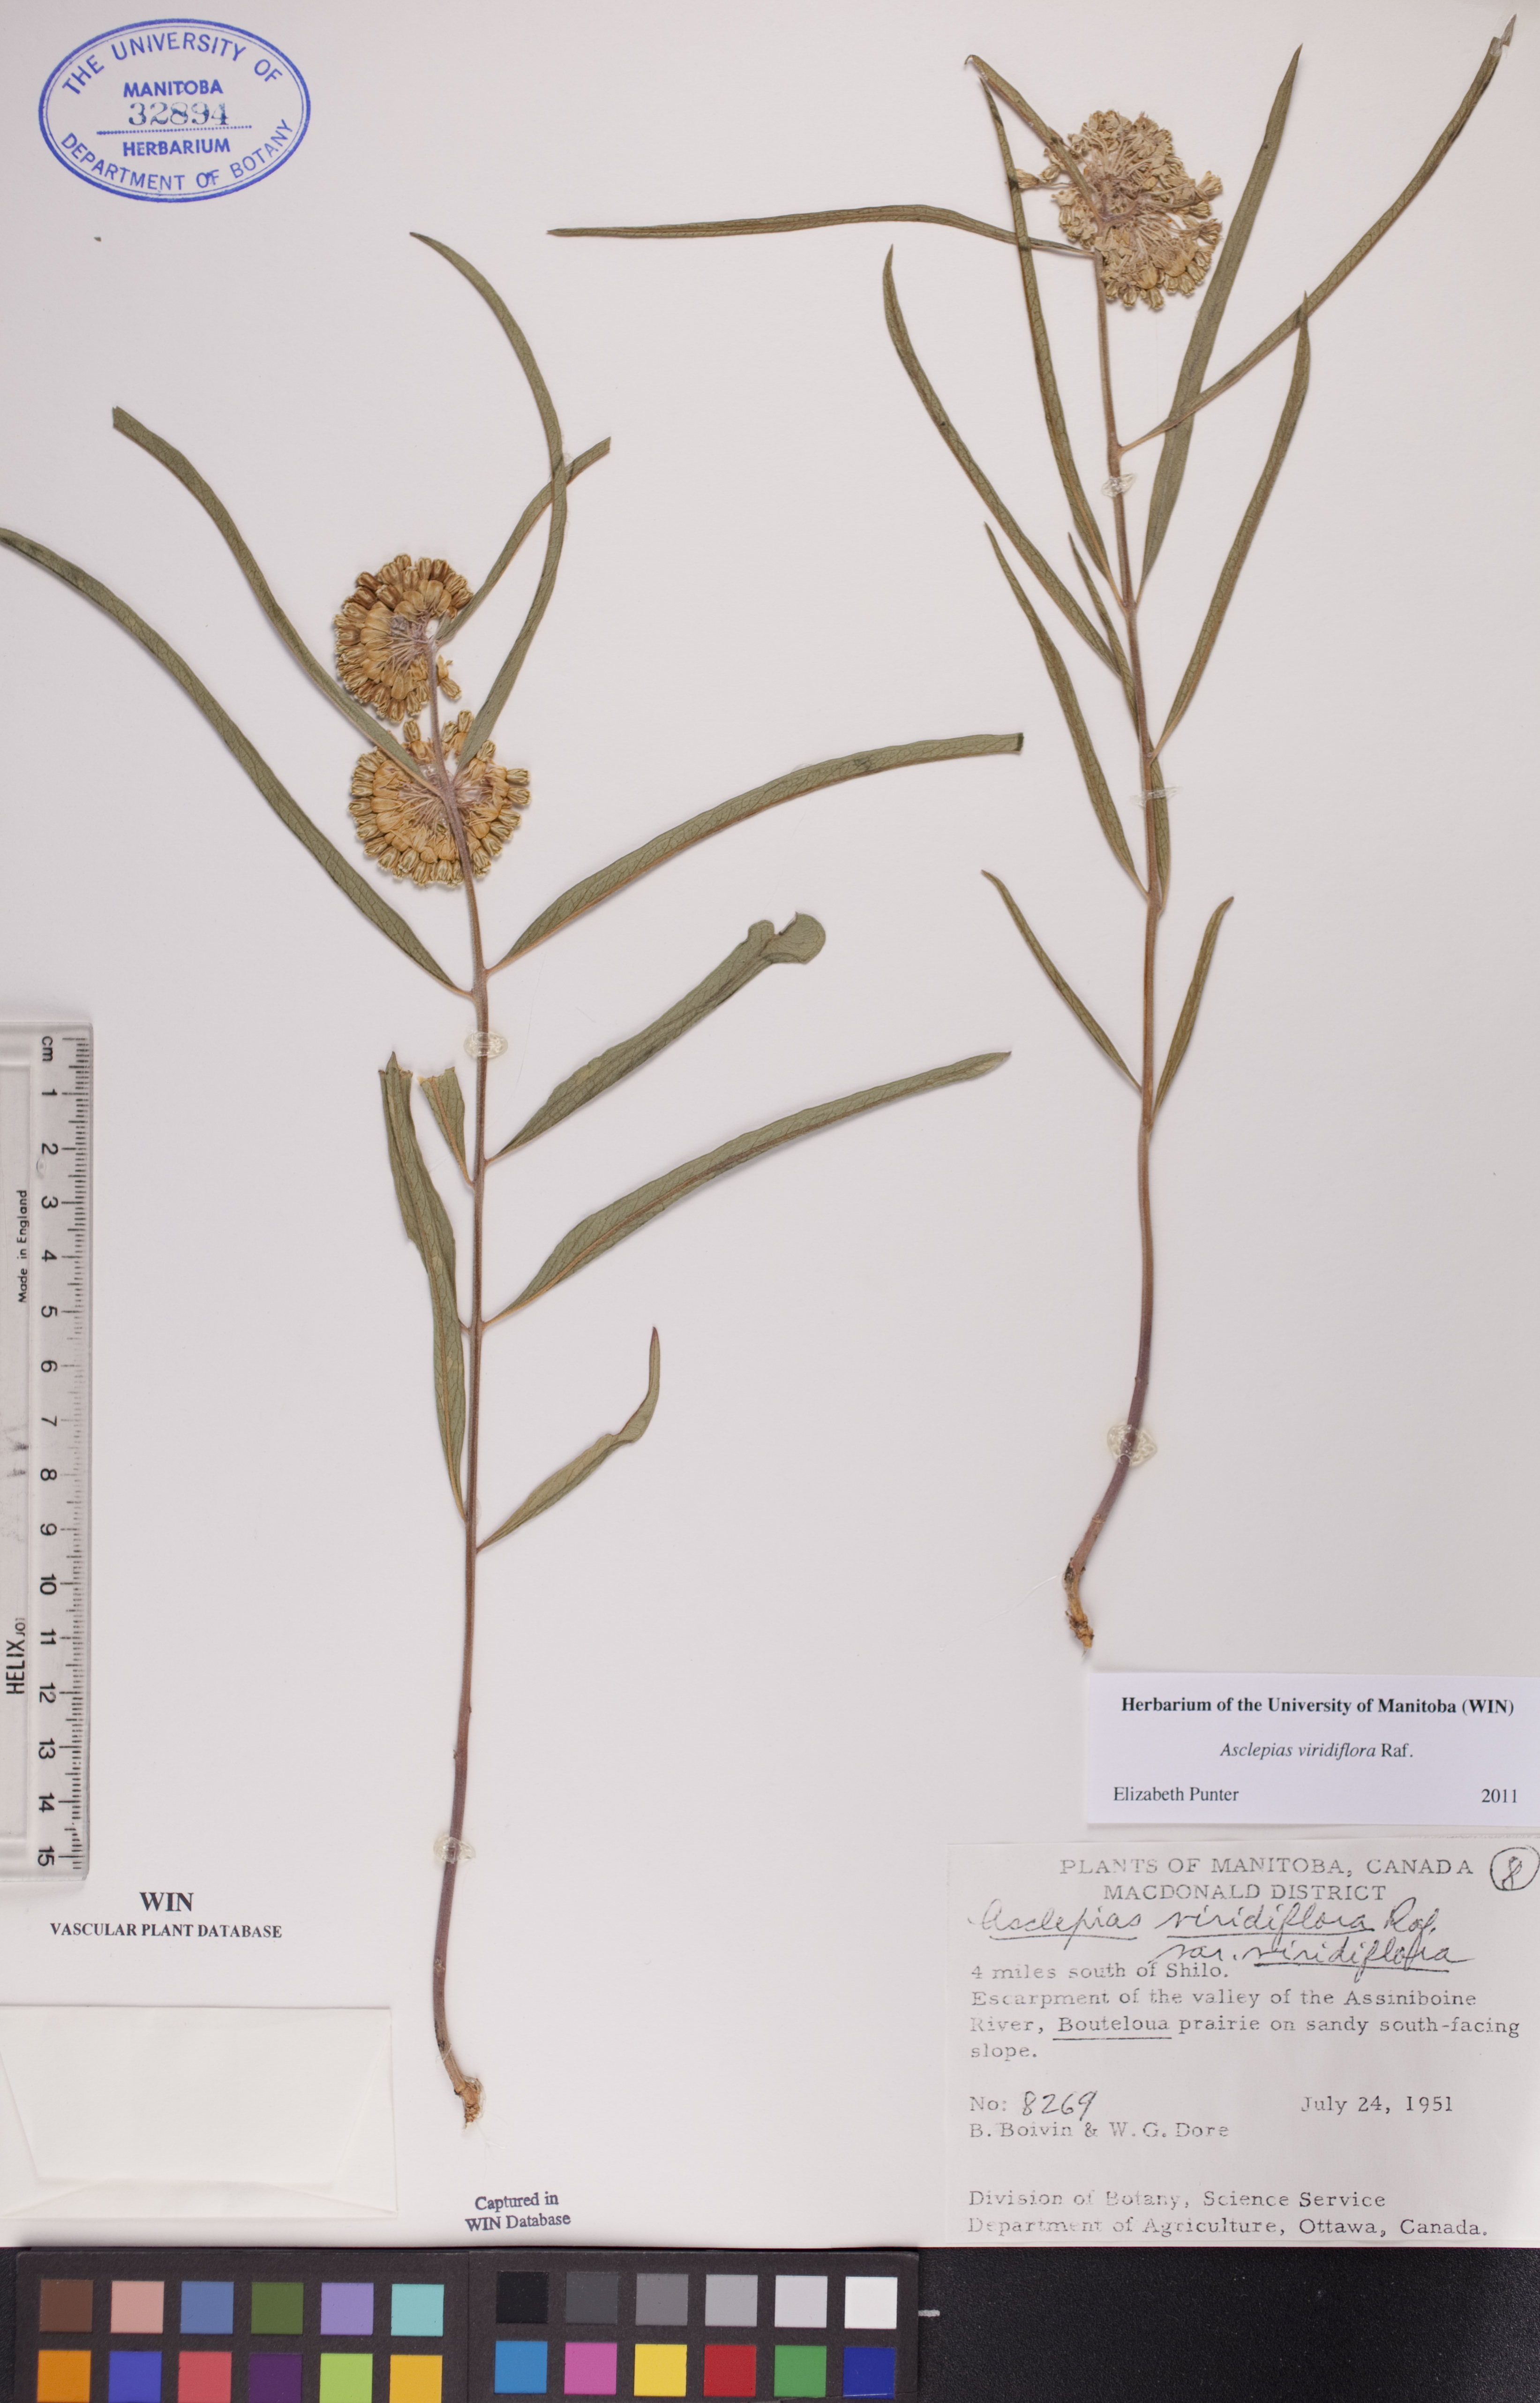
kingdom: Plantae
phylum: Tracheophyta
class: Magnoliopsida
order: Gentianales
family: Apocynaceae
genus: Asclepias
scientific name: Asclepias viridiflora
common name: Green comet milkweed
